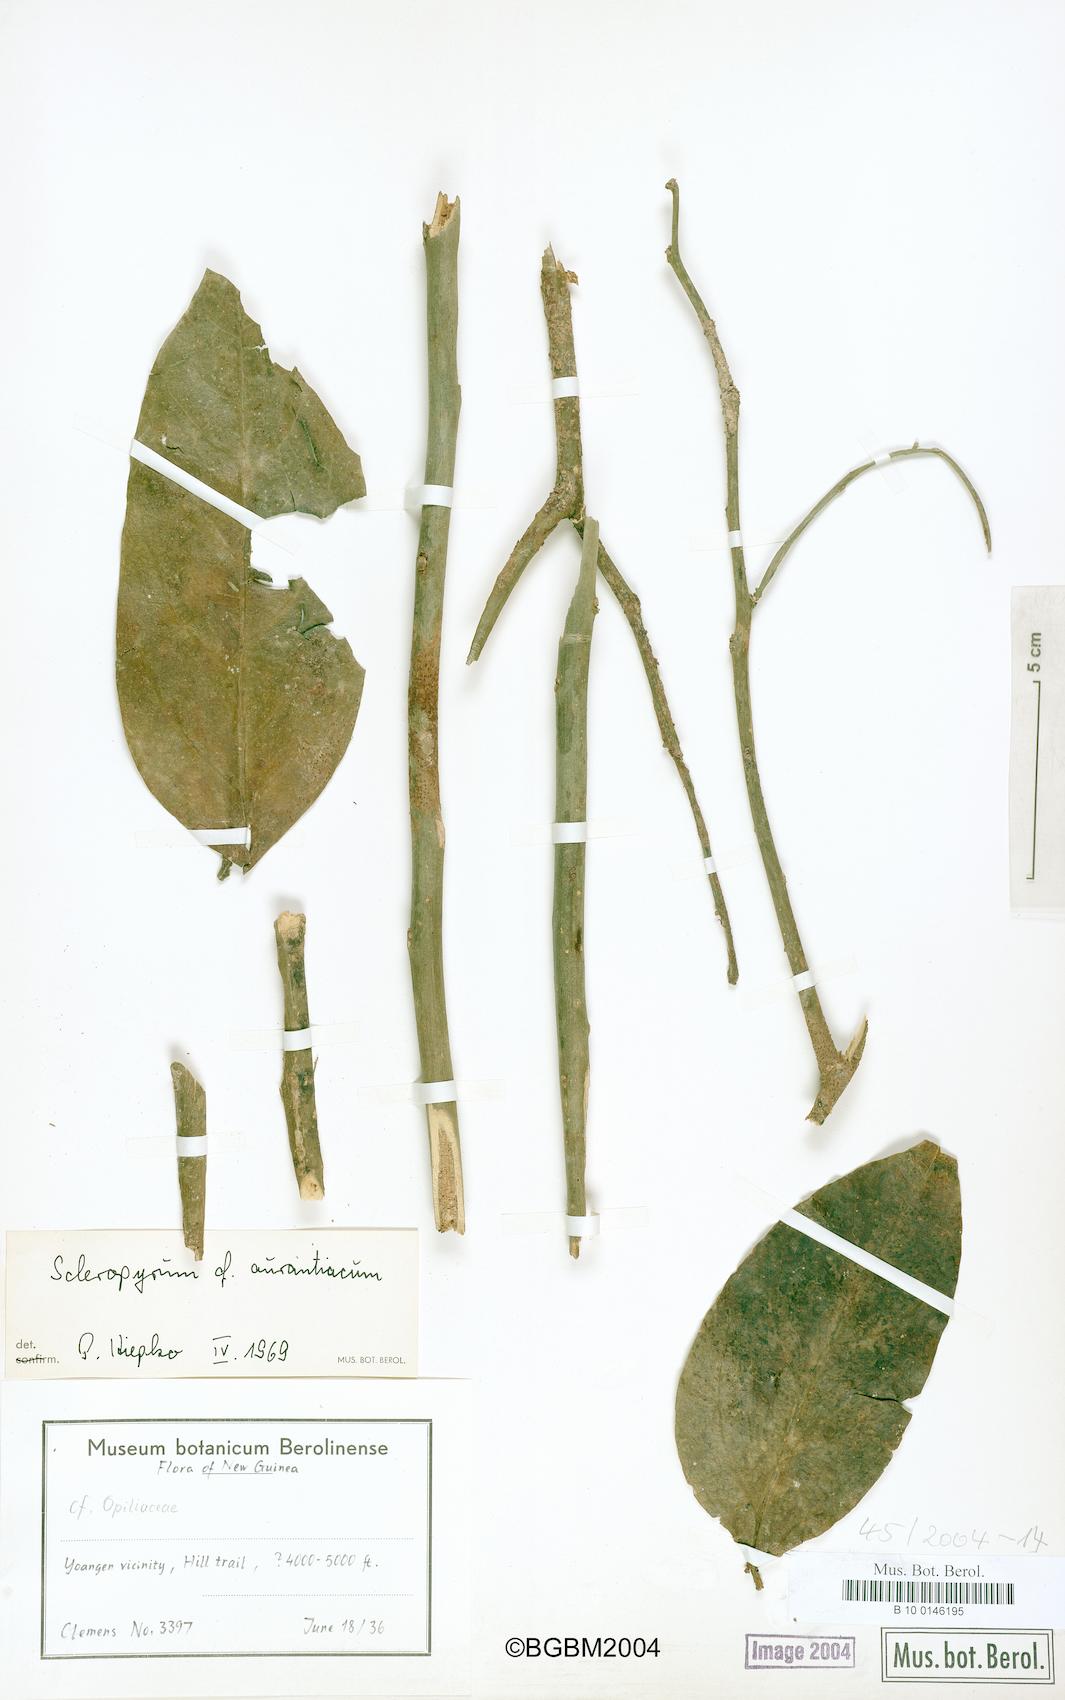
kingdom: Plantae
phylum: Tracheophyta
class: Magnoliopsida
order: Santalales
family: Cervantesiaceae
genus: Scleropyrum
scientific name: Scleropyrum aurantiacum
